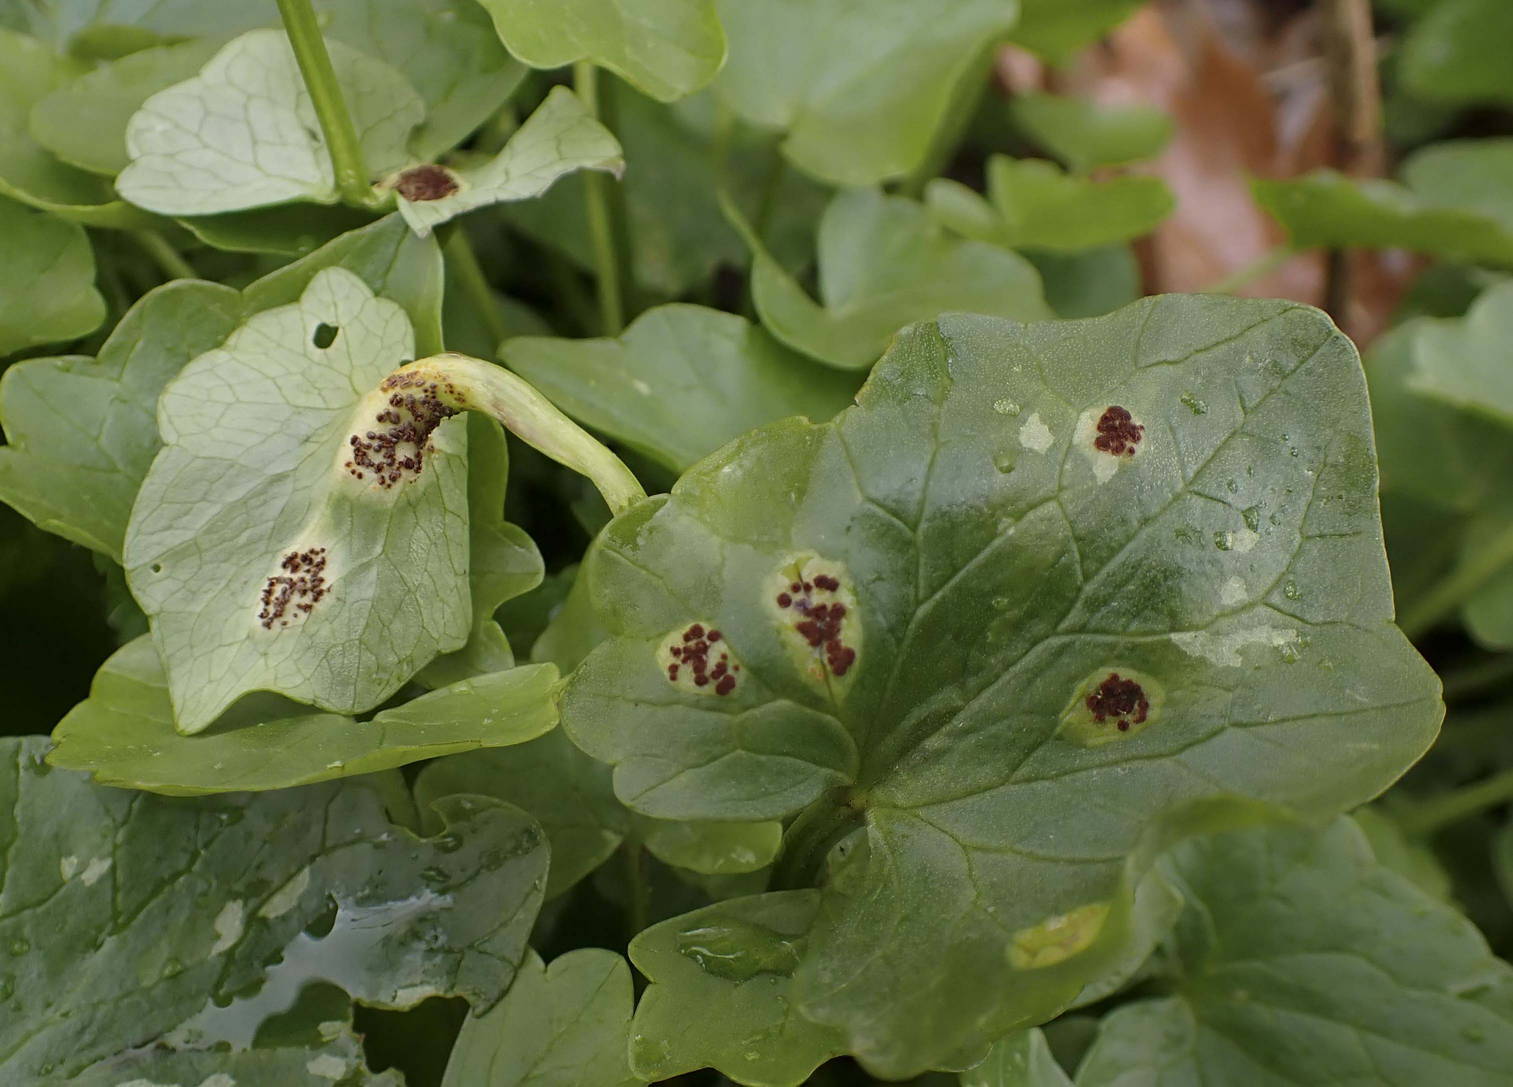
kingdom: Fungi
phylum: Basidiomycota
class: Pucciniomycetes
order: Pucciniales
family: Pucciniaceae
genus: Uromyces
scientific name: Uromyces ficariae
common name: vorterod-encellerust
